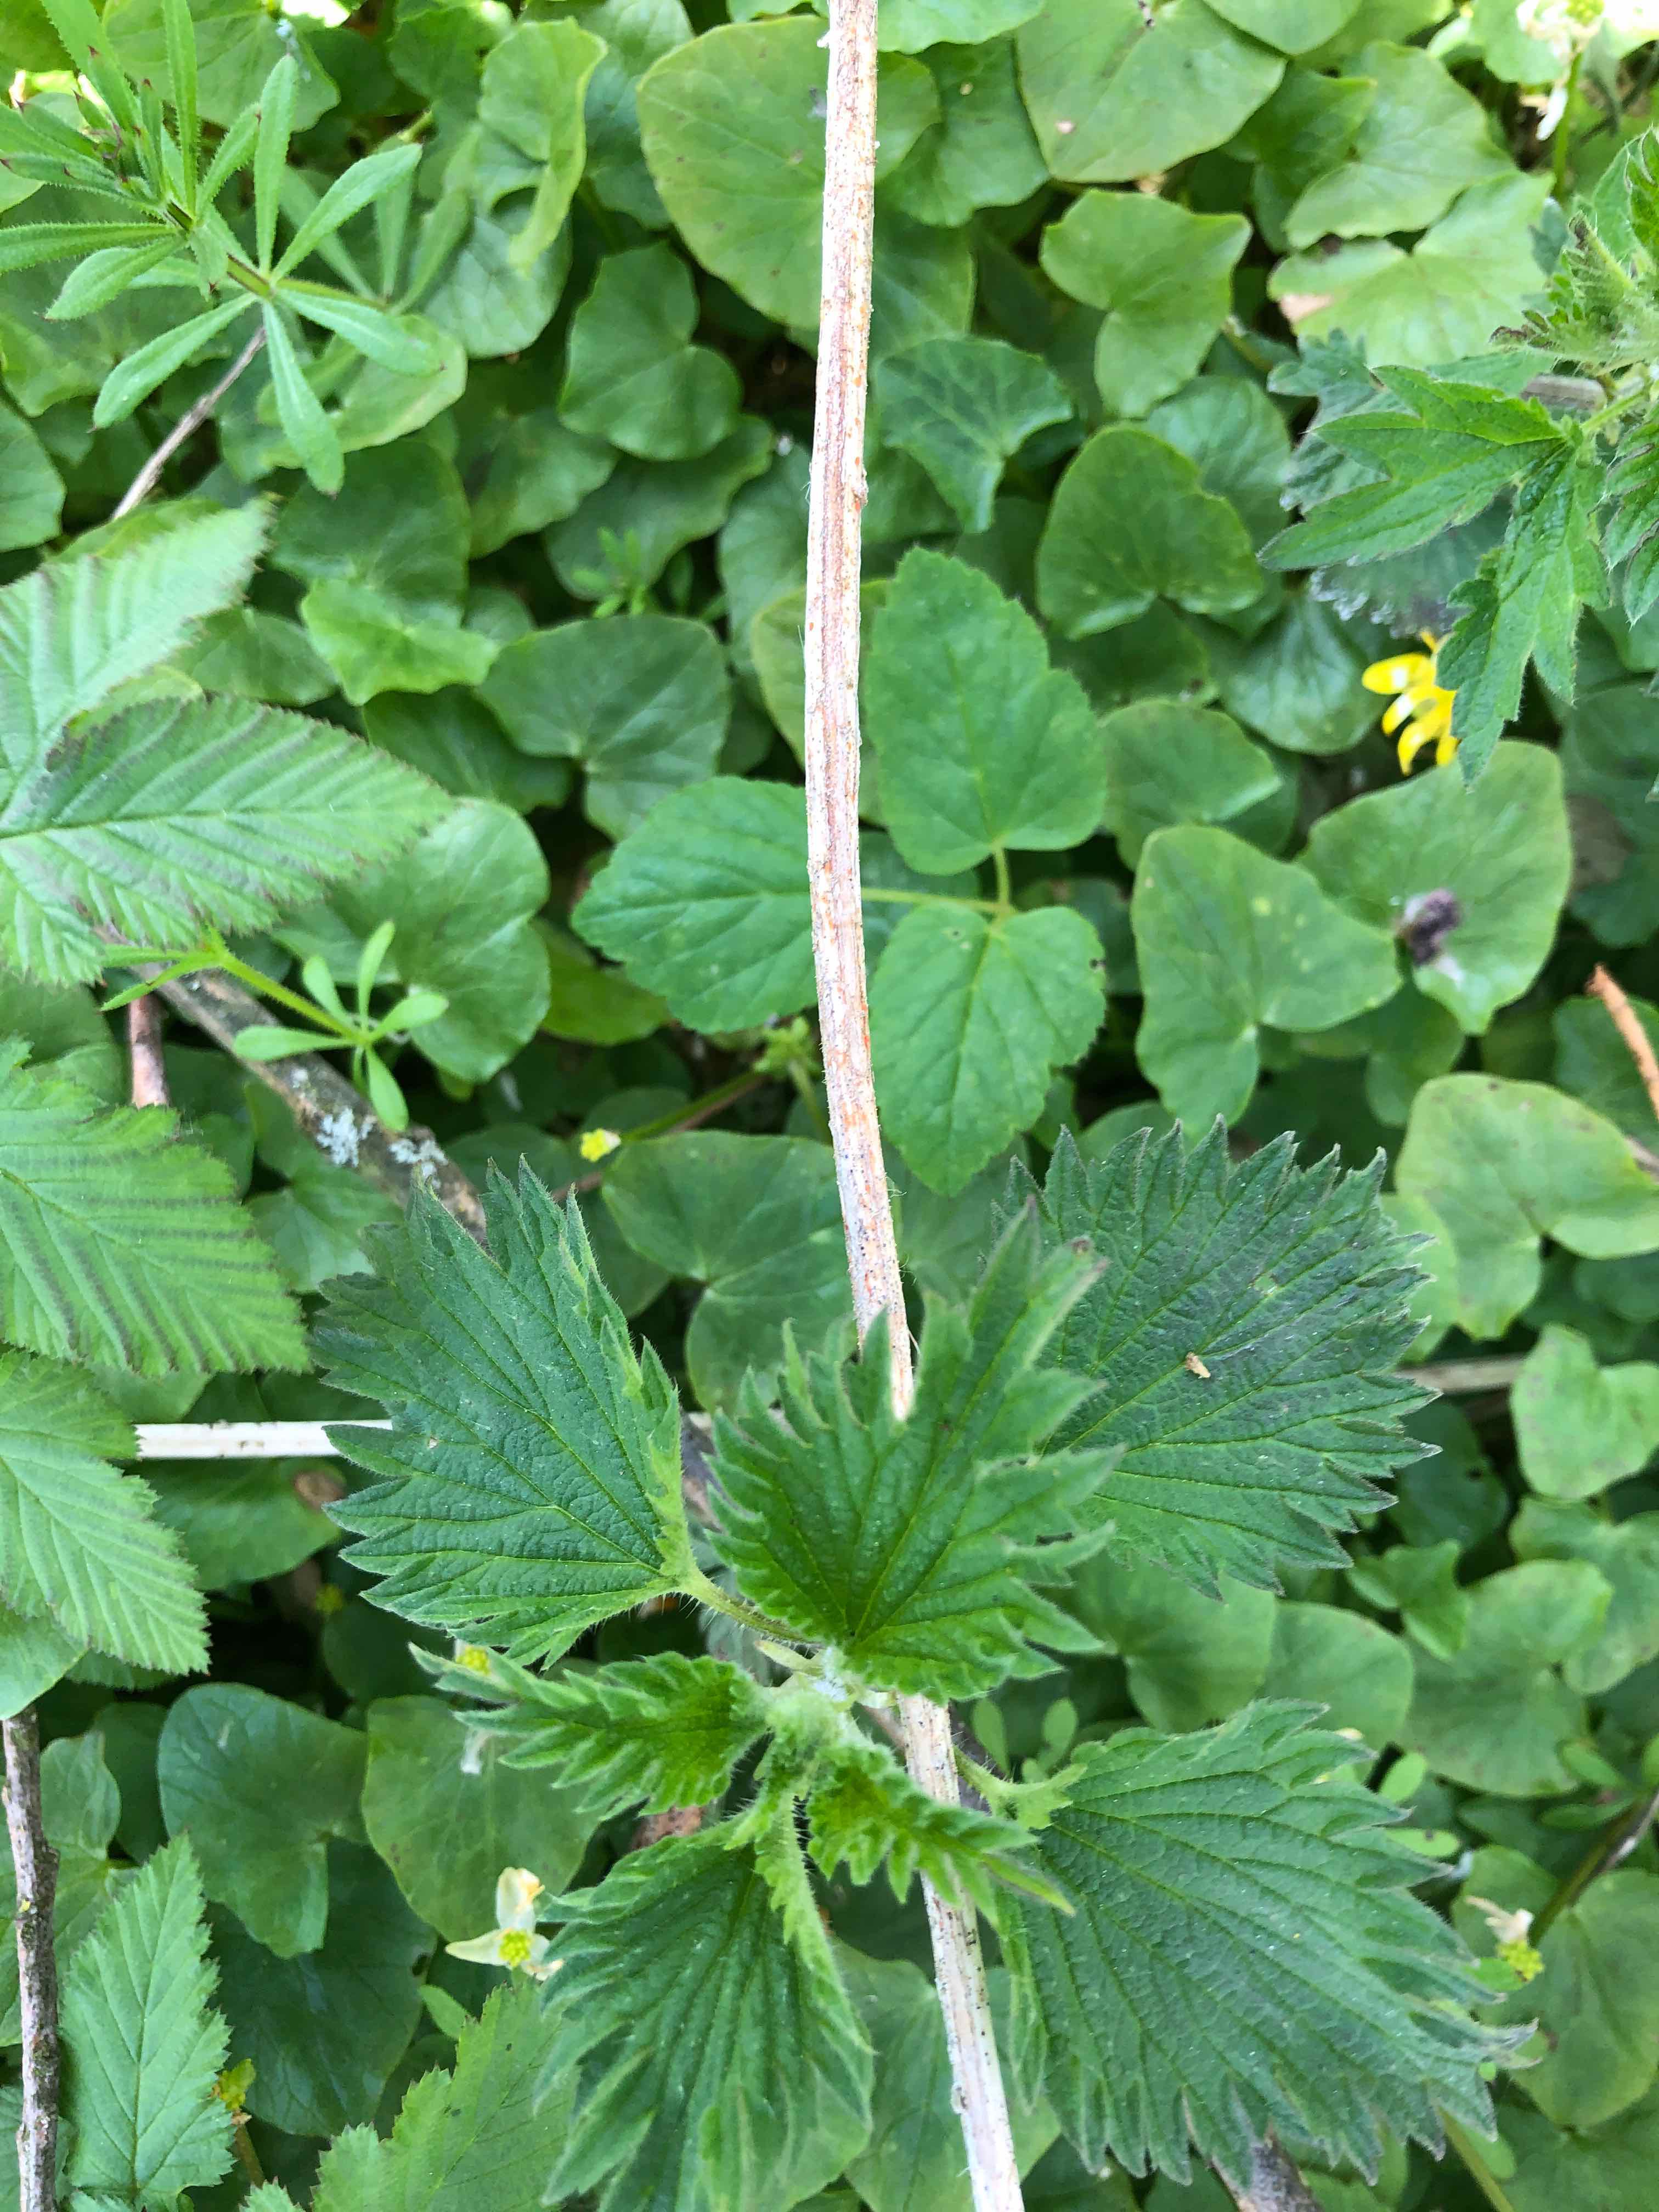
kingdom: Fungi
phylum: Ascomycota
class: Dothideomycetes
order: Pleosporales
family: Leptosphaeriaceae
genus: Leptosphaeria
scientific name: Leptosphaeria acuta
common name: spids kulkegle
